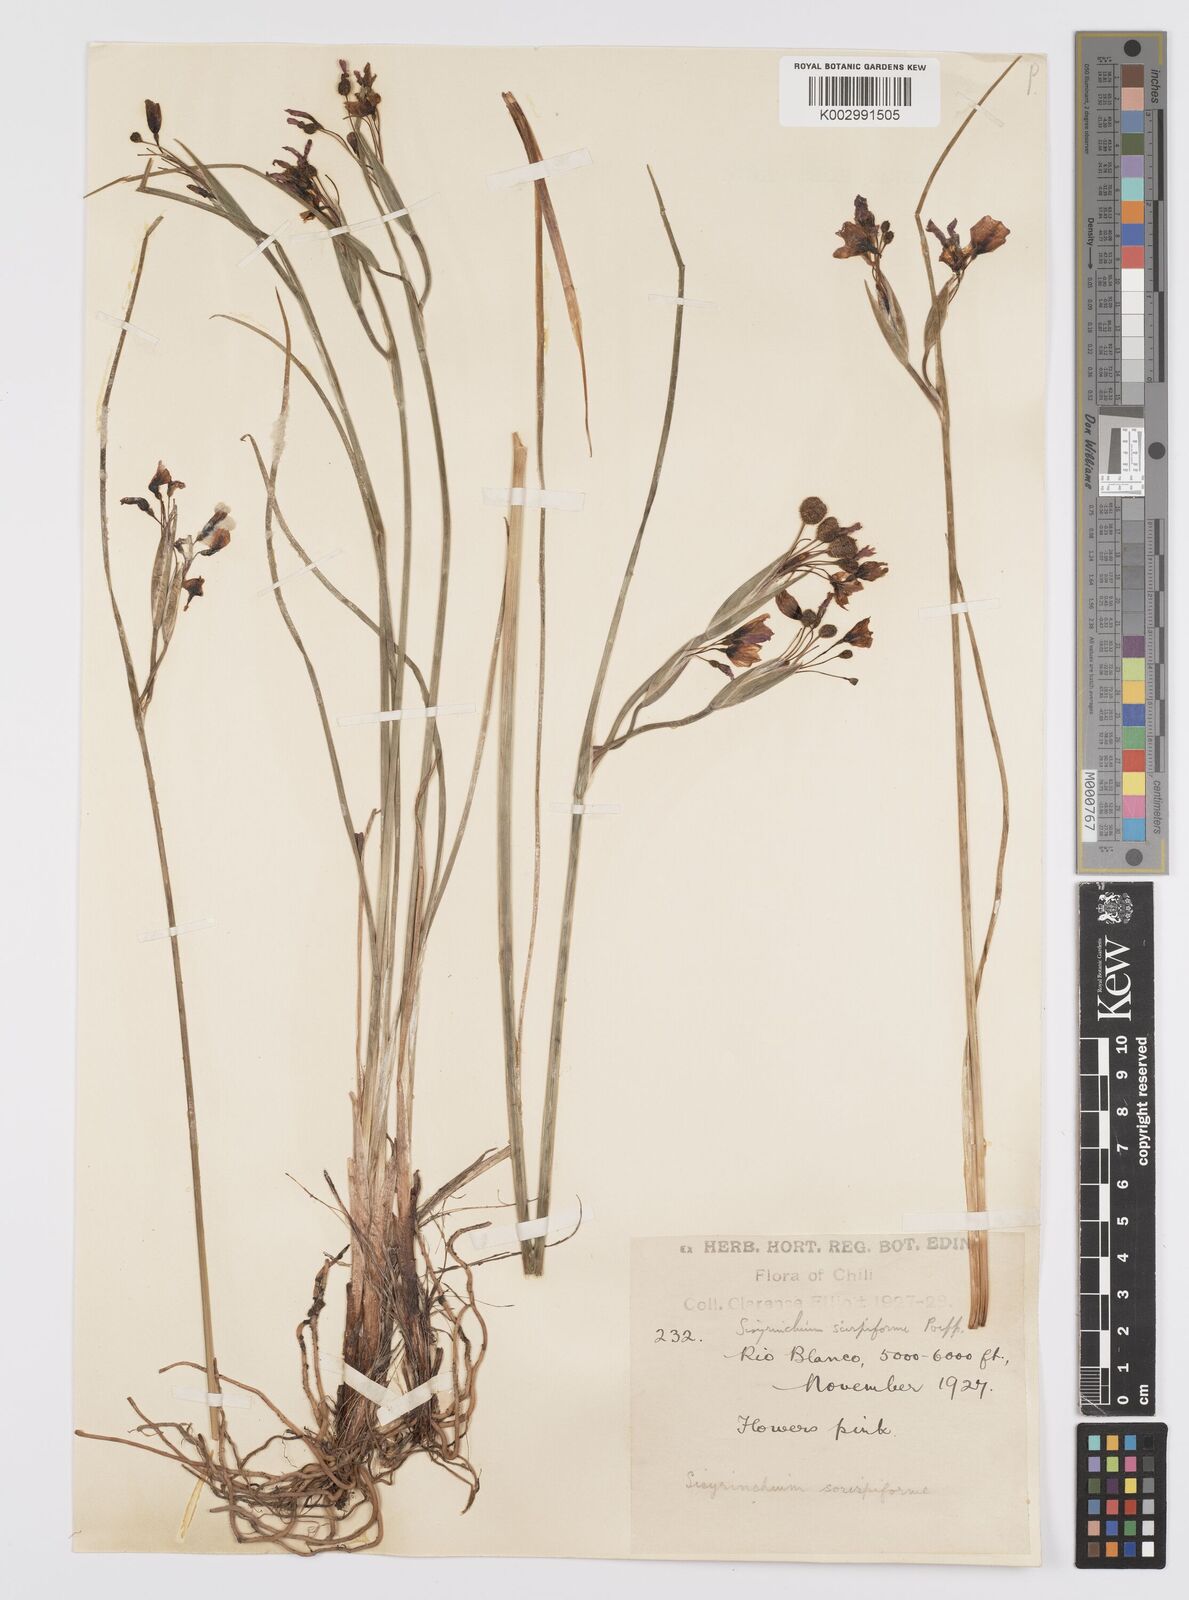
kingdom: Plantae
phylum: Tracheophyta
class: Liliopsida
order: Asparagales
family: Iridaceae
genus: Olsynium
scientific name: Olsynium junceum
